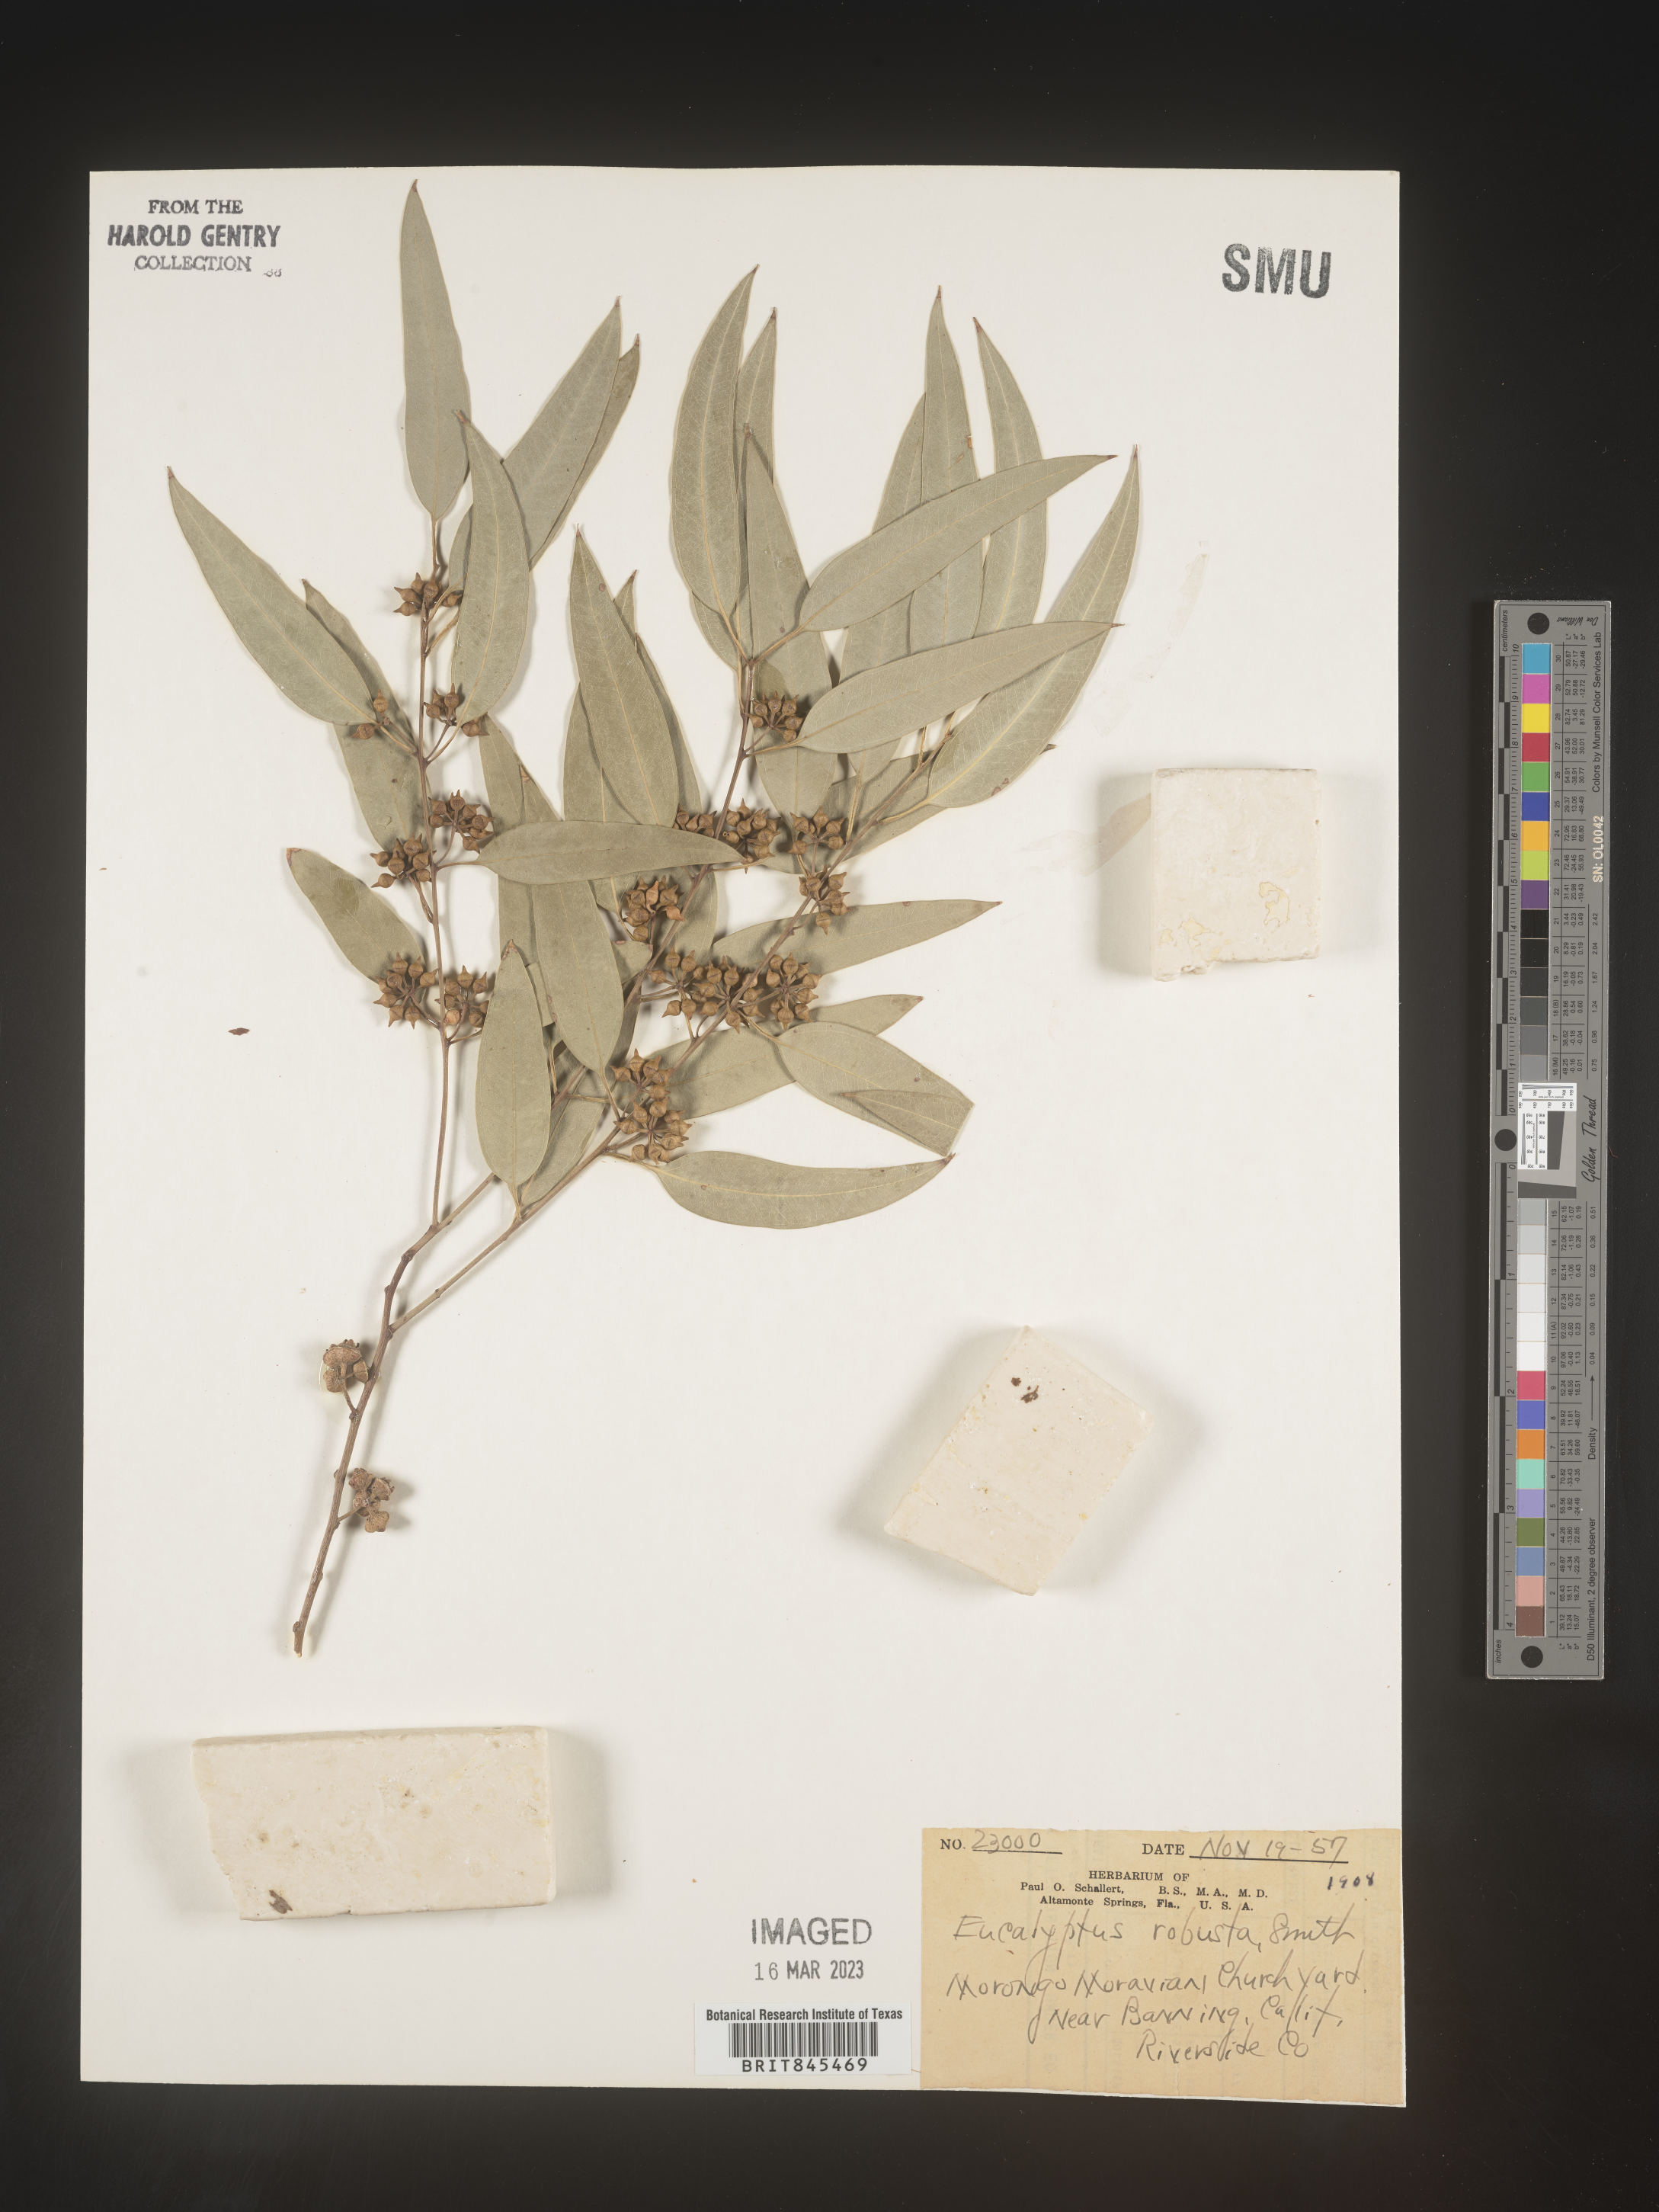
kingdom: Plantae
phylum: Tracheophyta
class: Magnoliopsida
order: Myrtales
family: Myrtaceae
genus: Eucalyptus
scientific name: Eucalyptus
